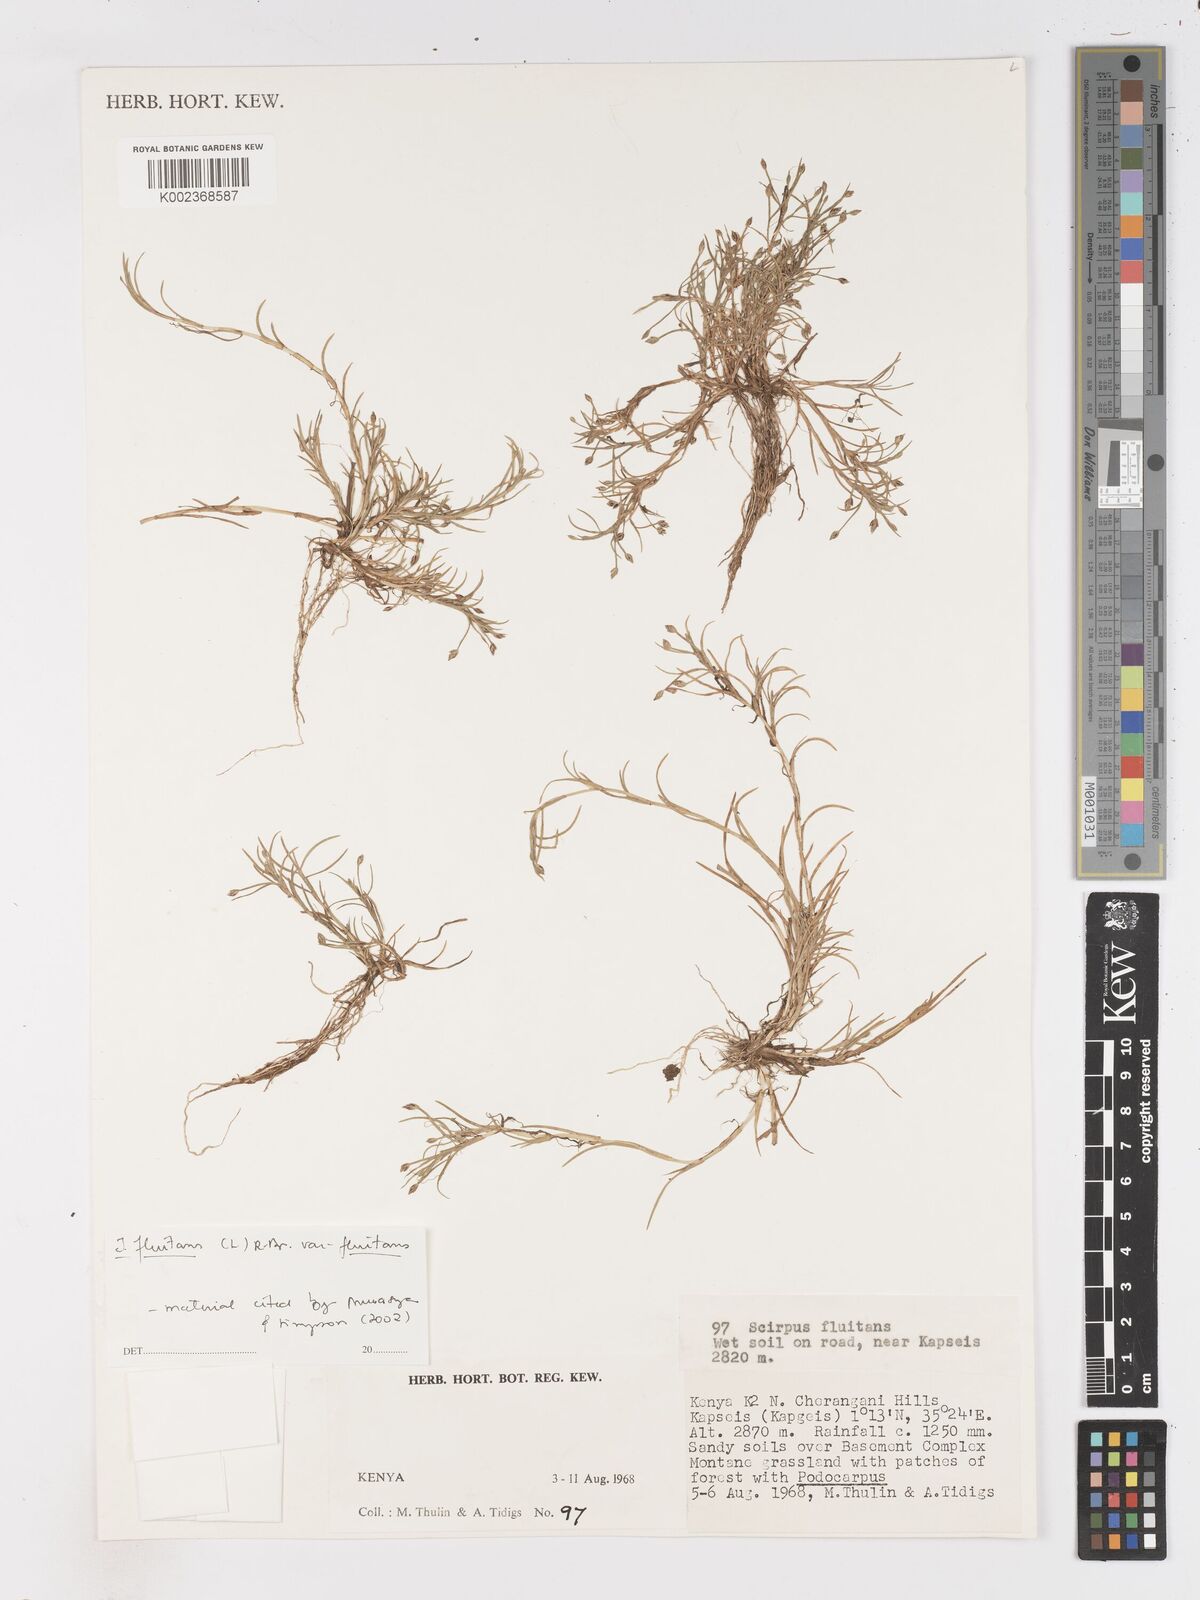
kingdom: Plantae
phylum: Tracheophyta
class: Liliopsida
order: Poales
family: Cyperaceae
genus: Isolepis
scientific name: Isolepis fluitans
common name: Floating club-rush
